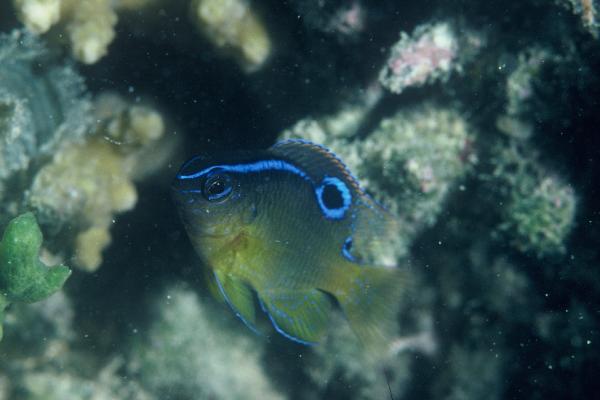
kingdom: Animalia
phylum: Chordata
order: Perciformes
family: Pomacentridae
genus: Chrysiptera
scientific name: Chrysiptera unimaculata
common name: Onespot demoiselle
